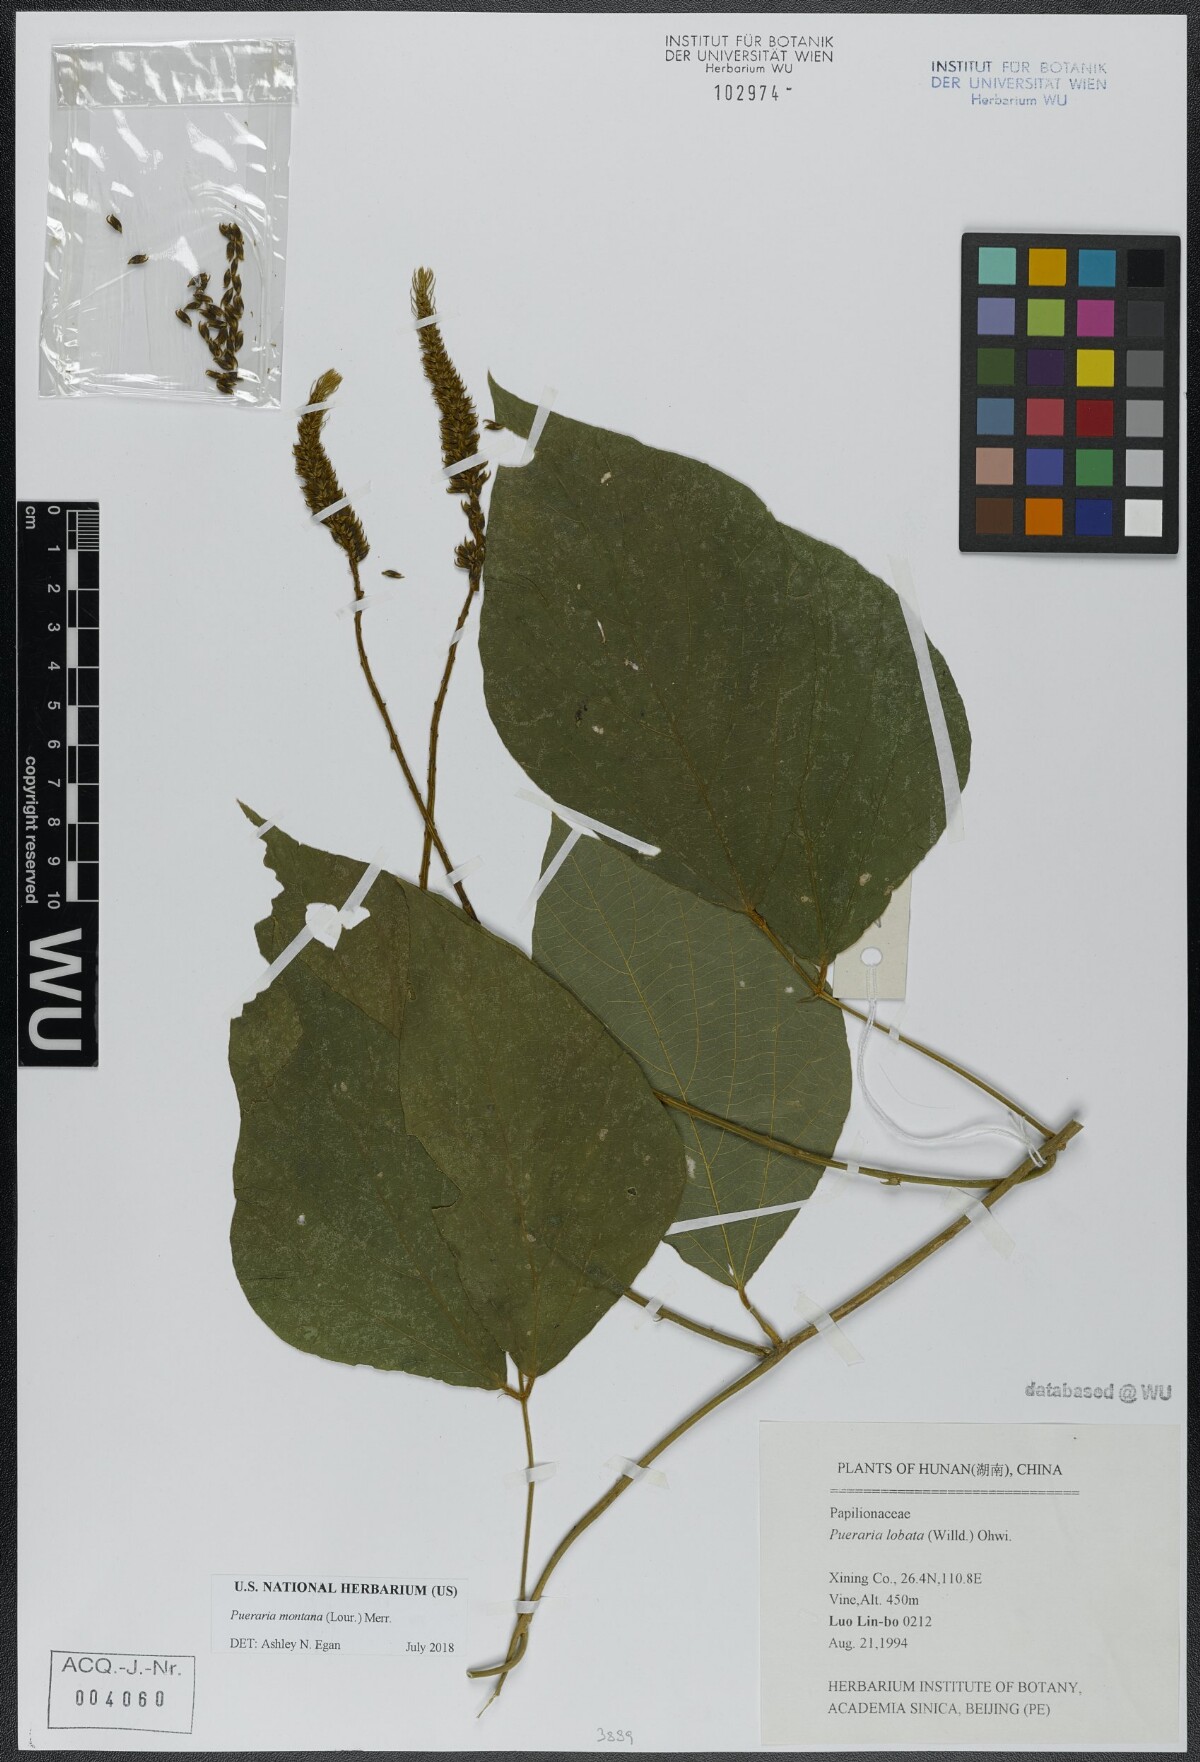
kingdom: Plantae
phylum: Tracheophyta
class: Magnoliopsida
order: Fabales
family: Fabaceae
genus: Pueraria
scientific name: Pueraria montana
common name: Kudzu
